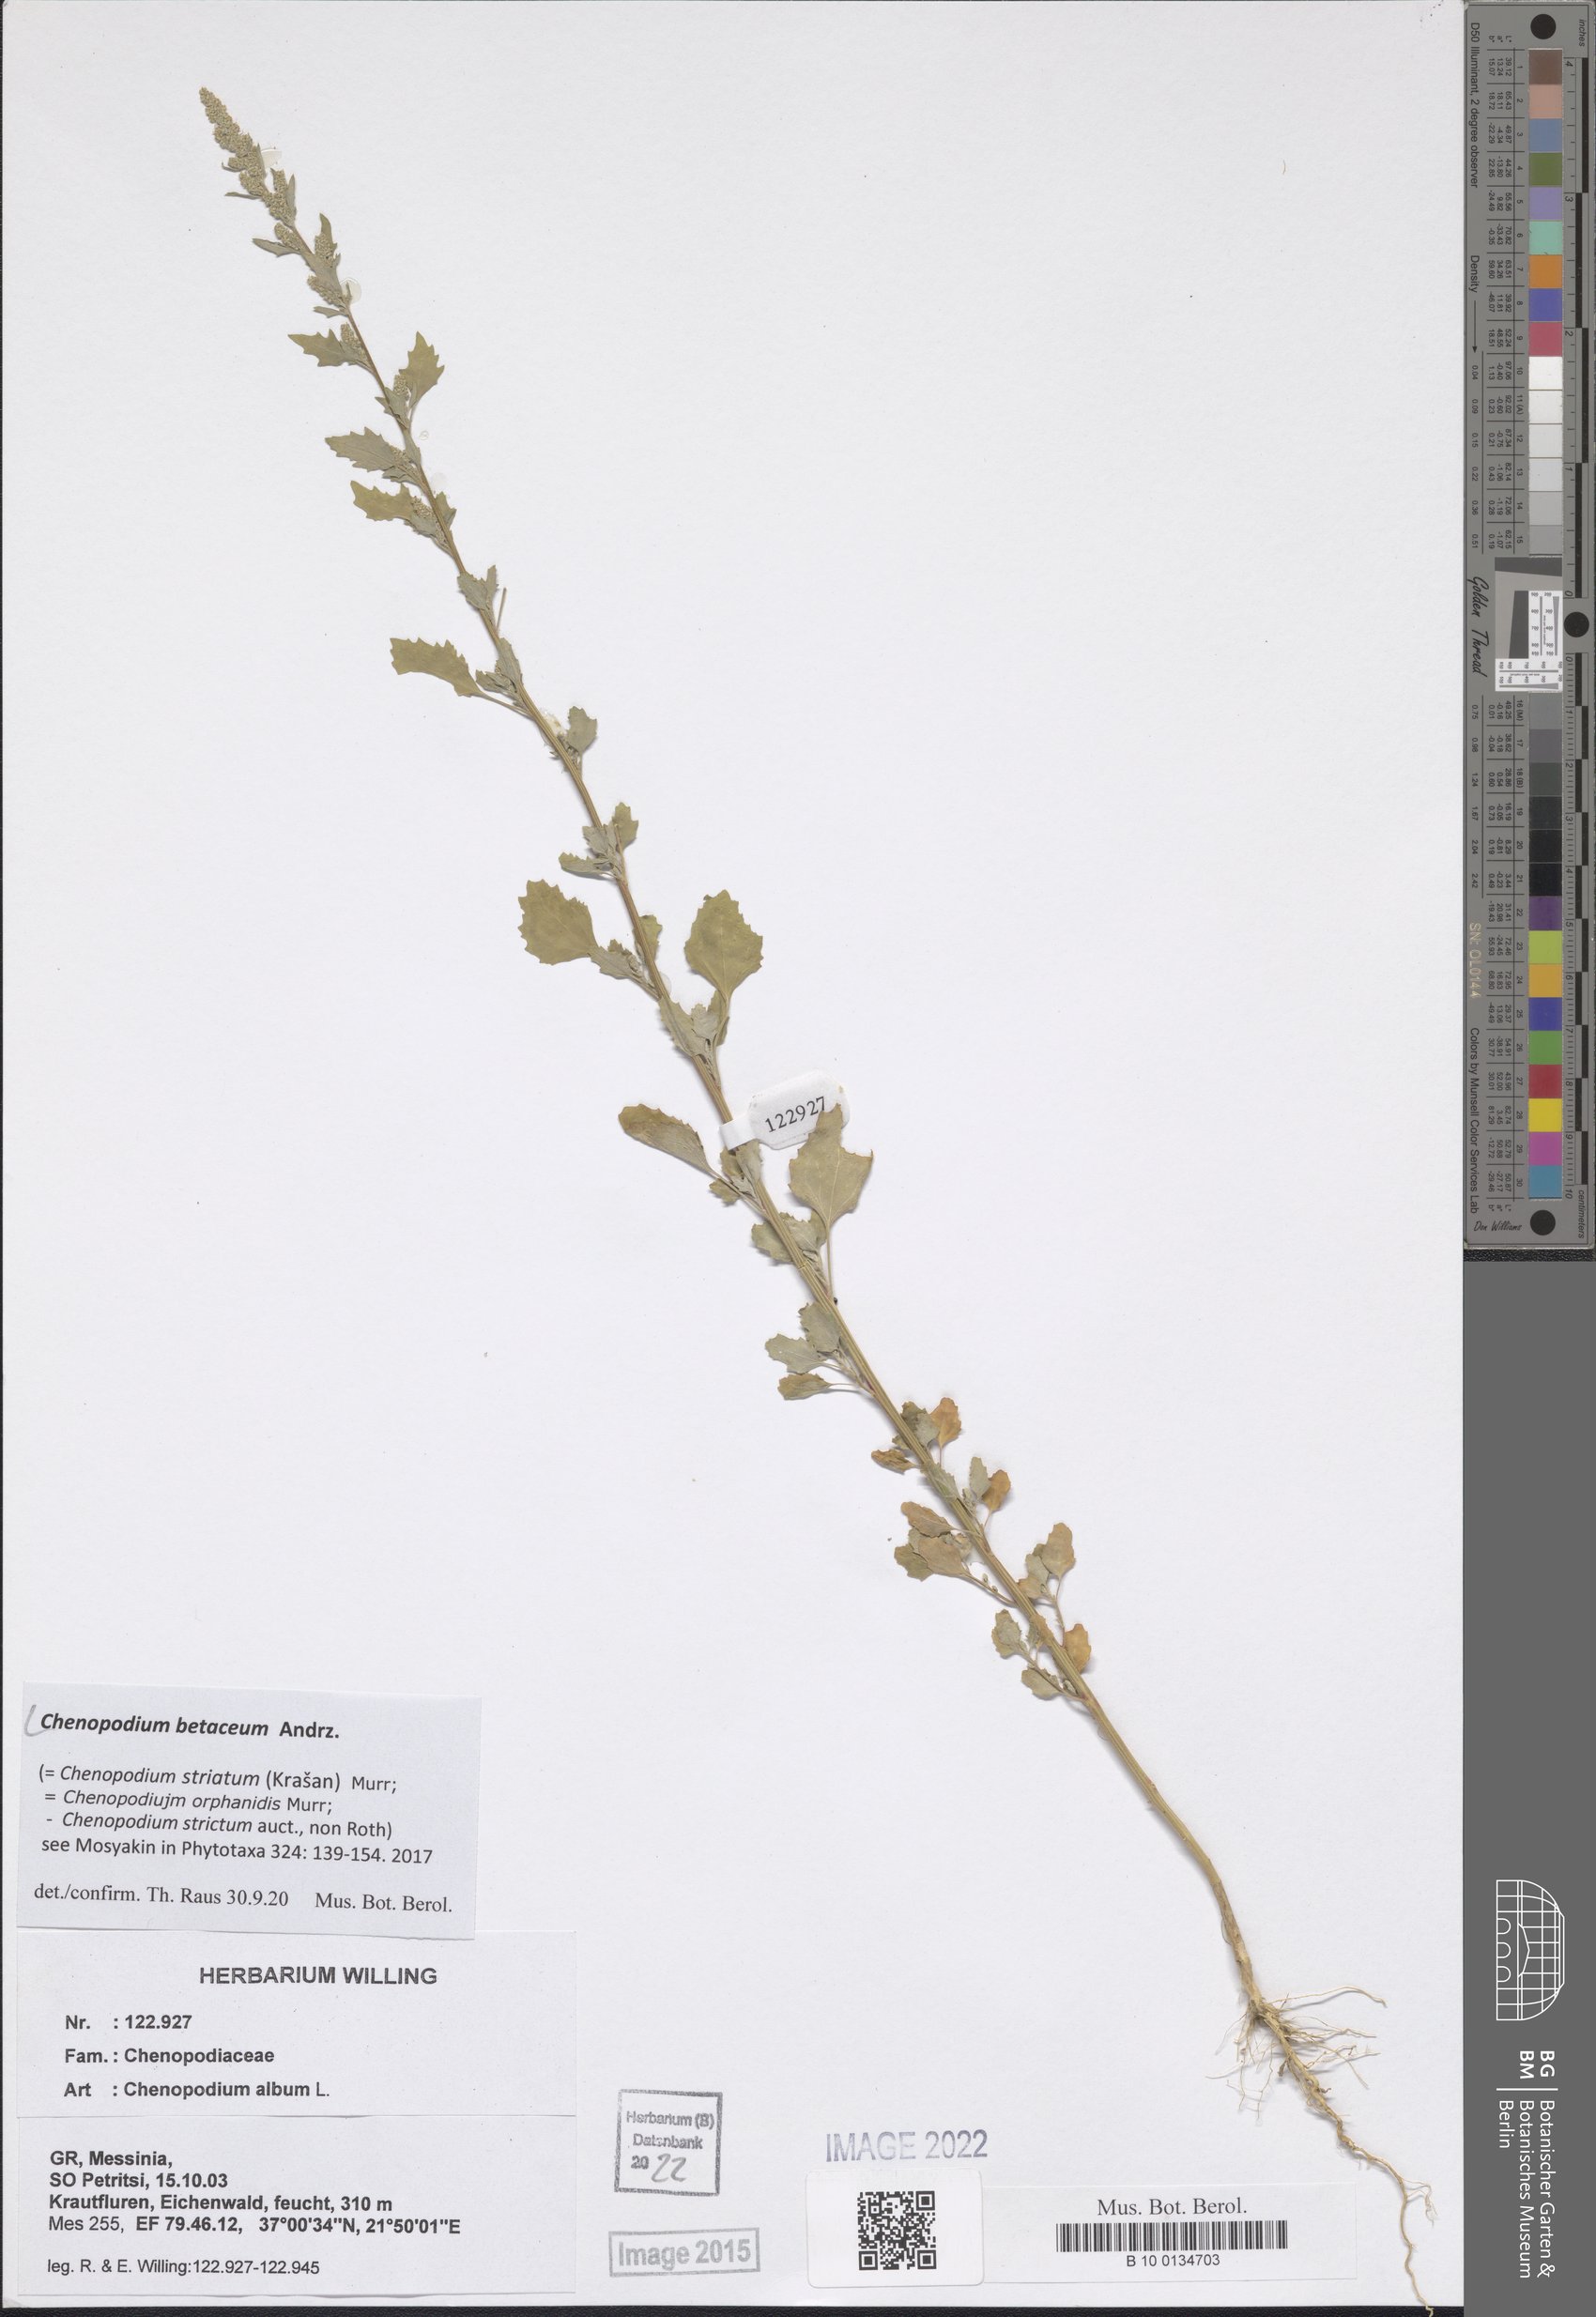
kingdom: Plantae
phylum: Tracheophyta
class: Magnoliopsida
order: Caryophyllales
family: Amaranthaceae
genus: Chenopodium
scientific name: Chenopodium betaceum
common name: Striped goosefoot
